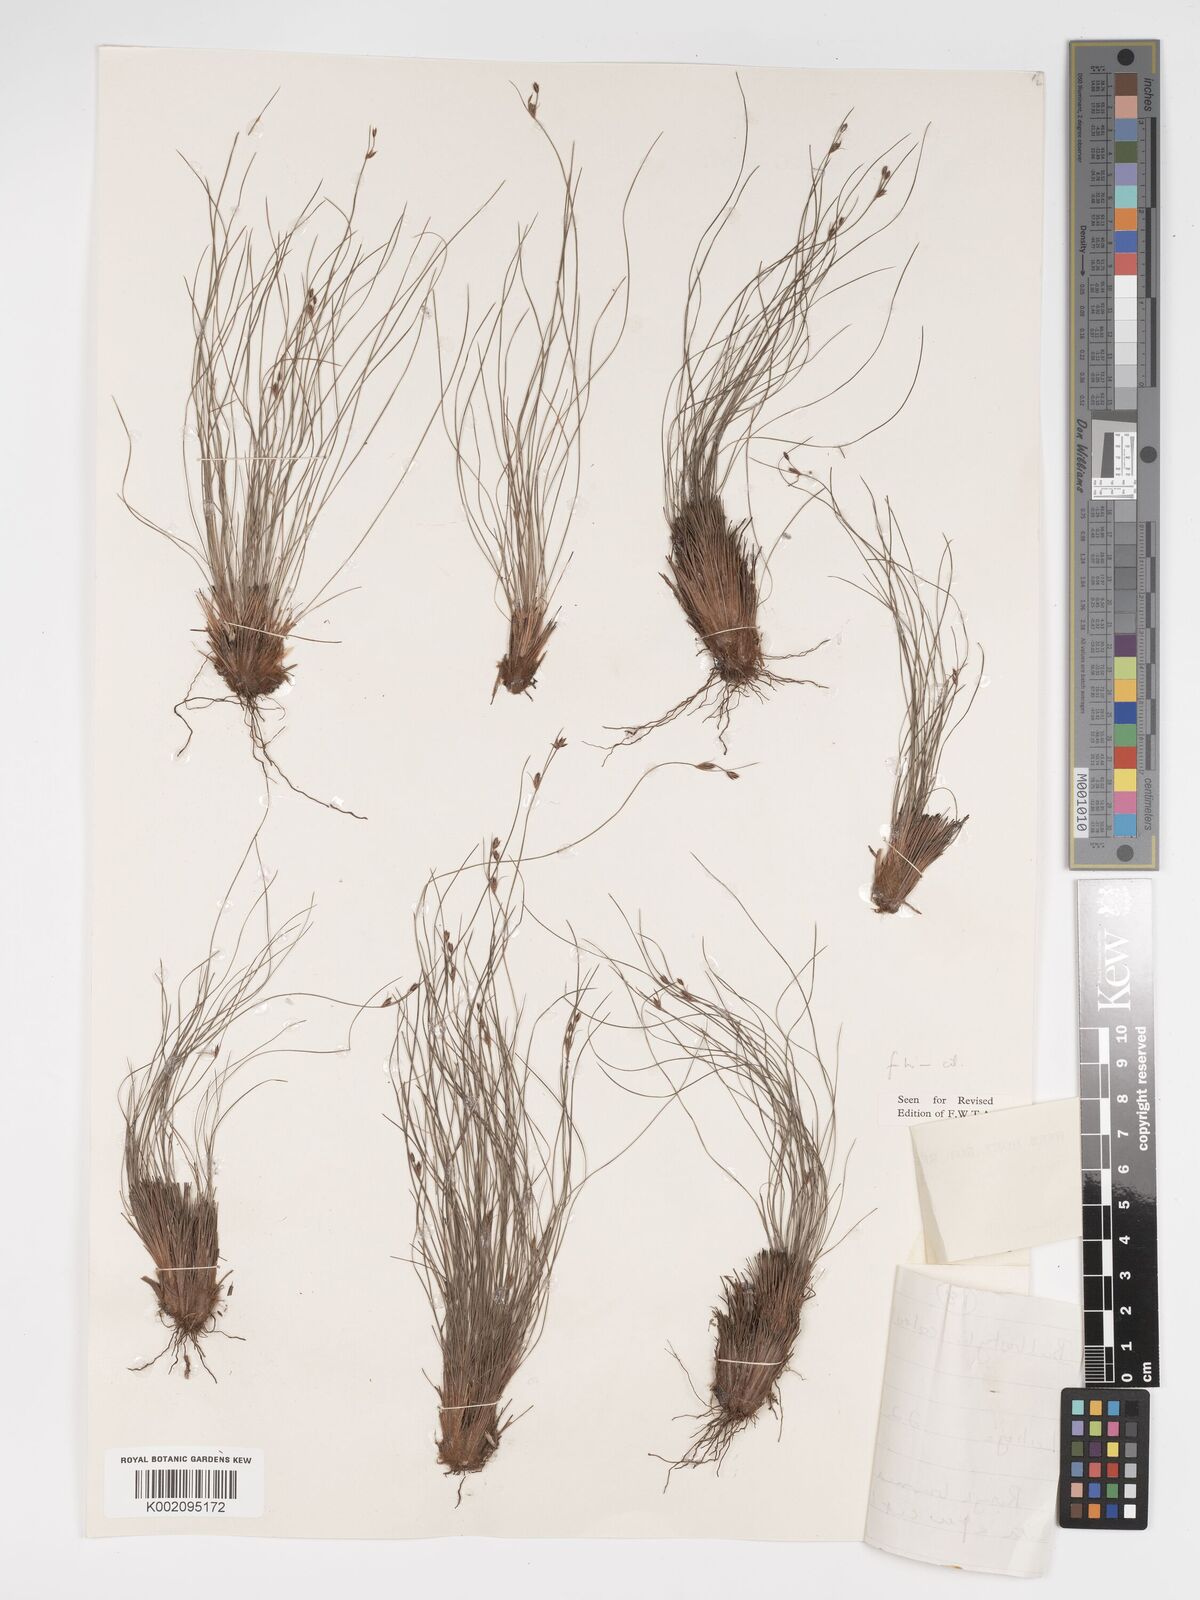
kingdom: Plantae
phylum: Tracheophyta
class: Liliopsida
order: Poales
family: Cyperaceae
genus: Bulbostylis
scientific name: Bulbostylis lanifera
